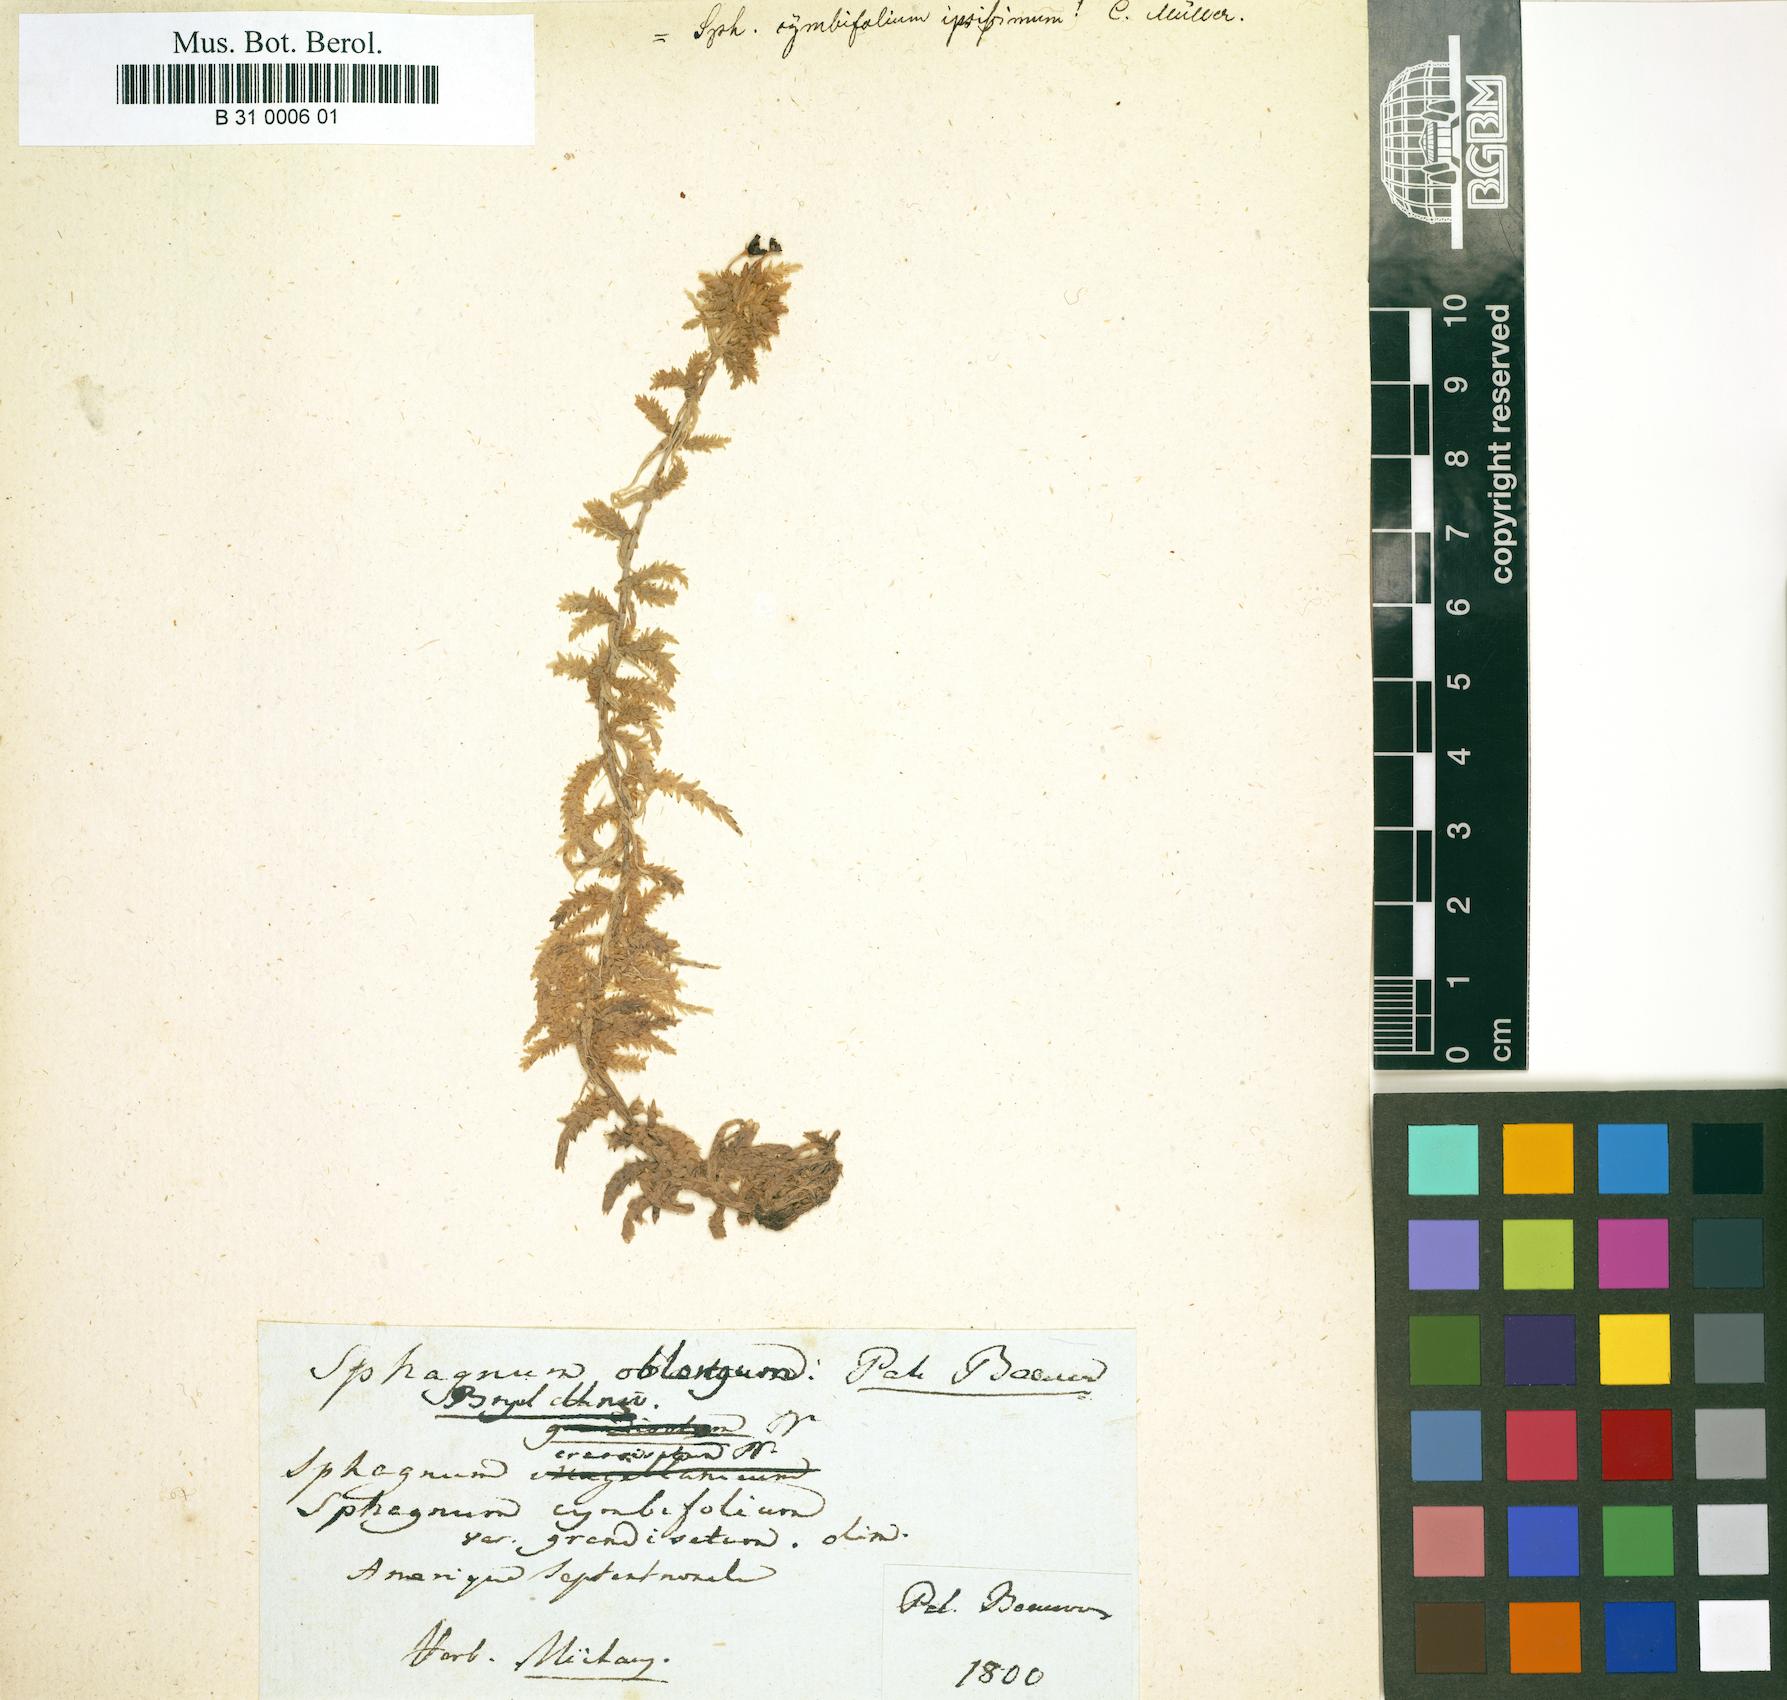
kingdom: Plantae
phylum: Bryophyta
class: Sphagnopsida
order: Sphagnales
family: Sphagnaceae
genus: Sphagnum
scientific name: Sphagnum palustre
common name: Blunt-leaved bog-moss
